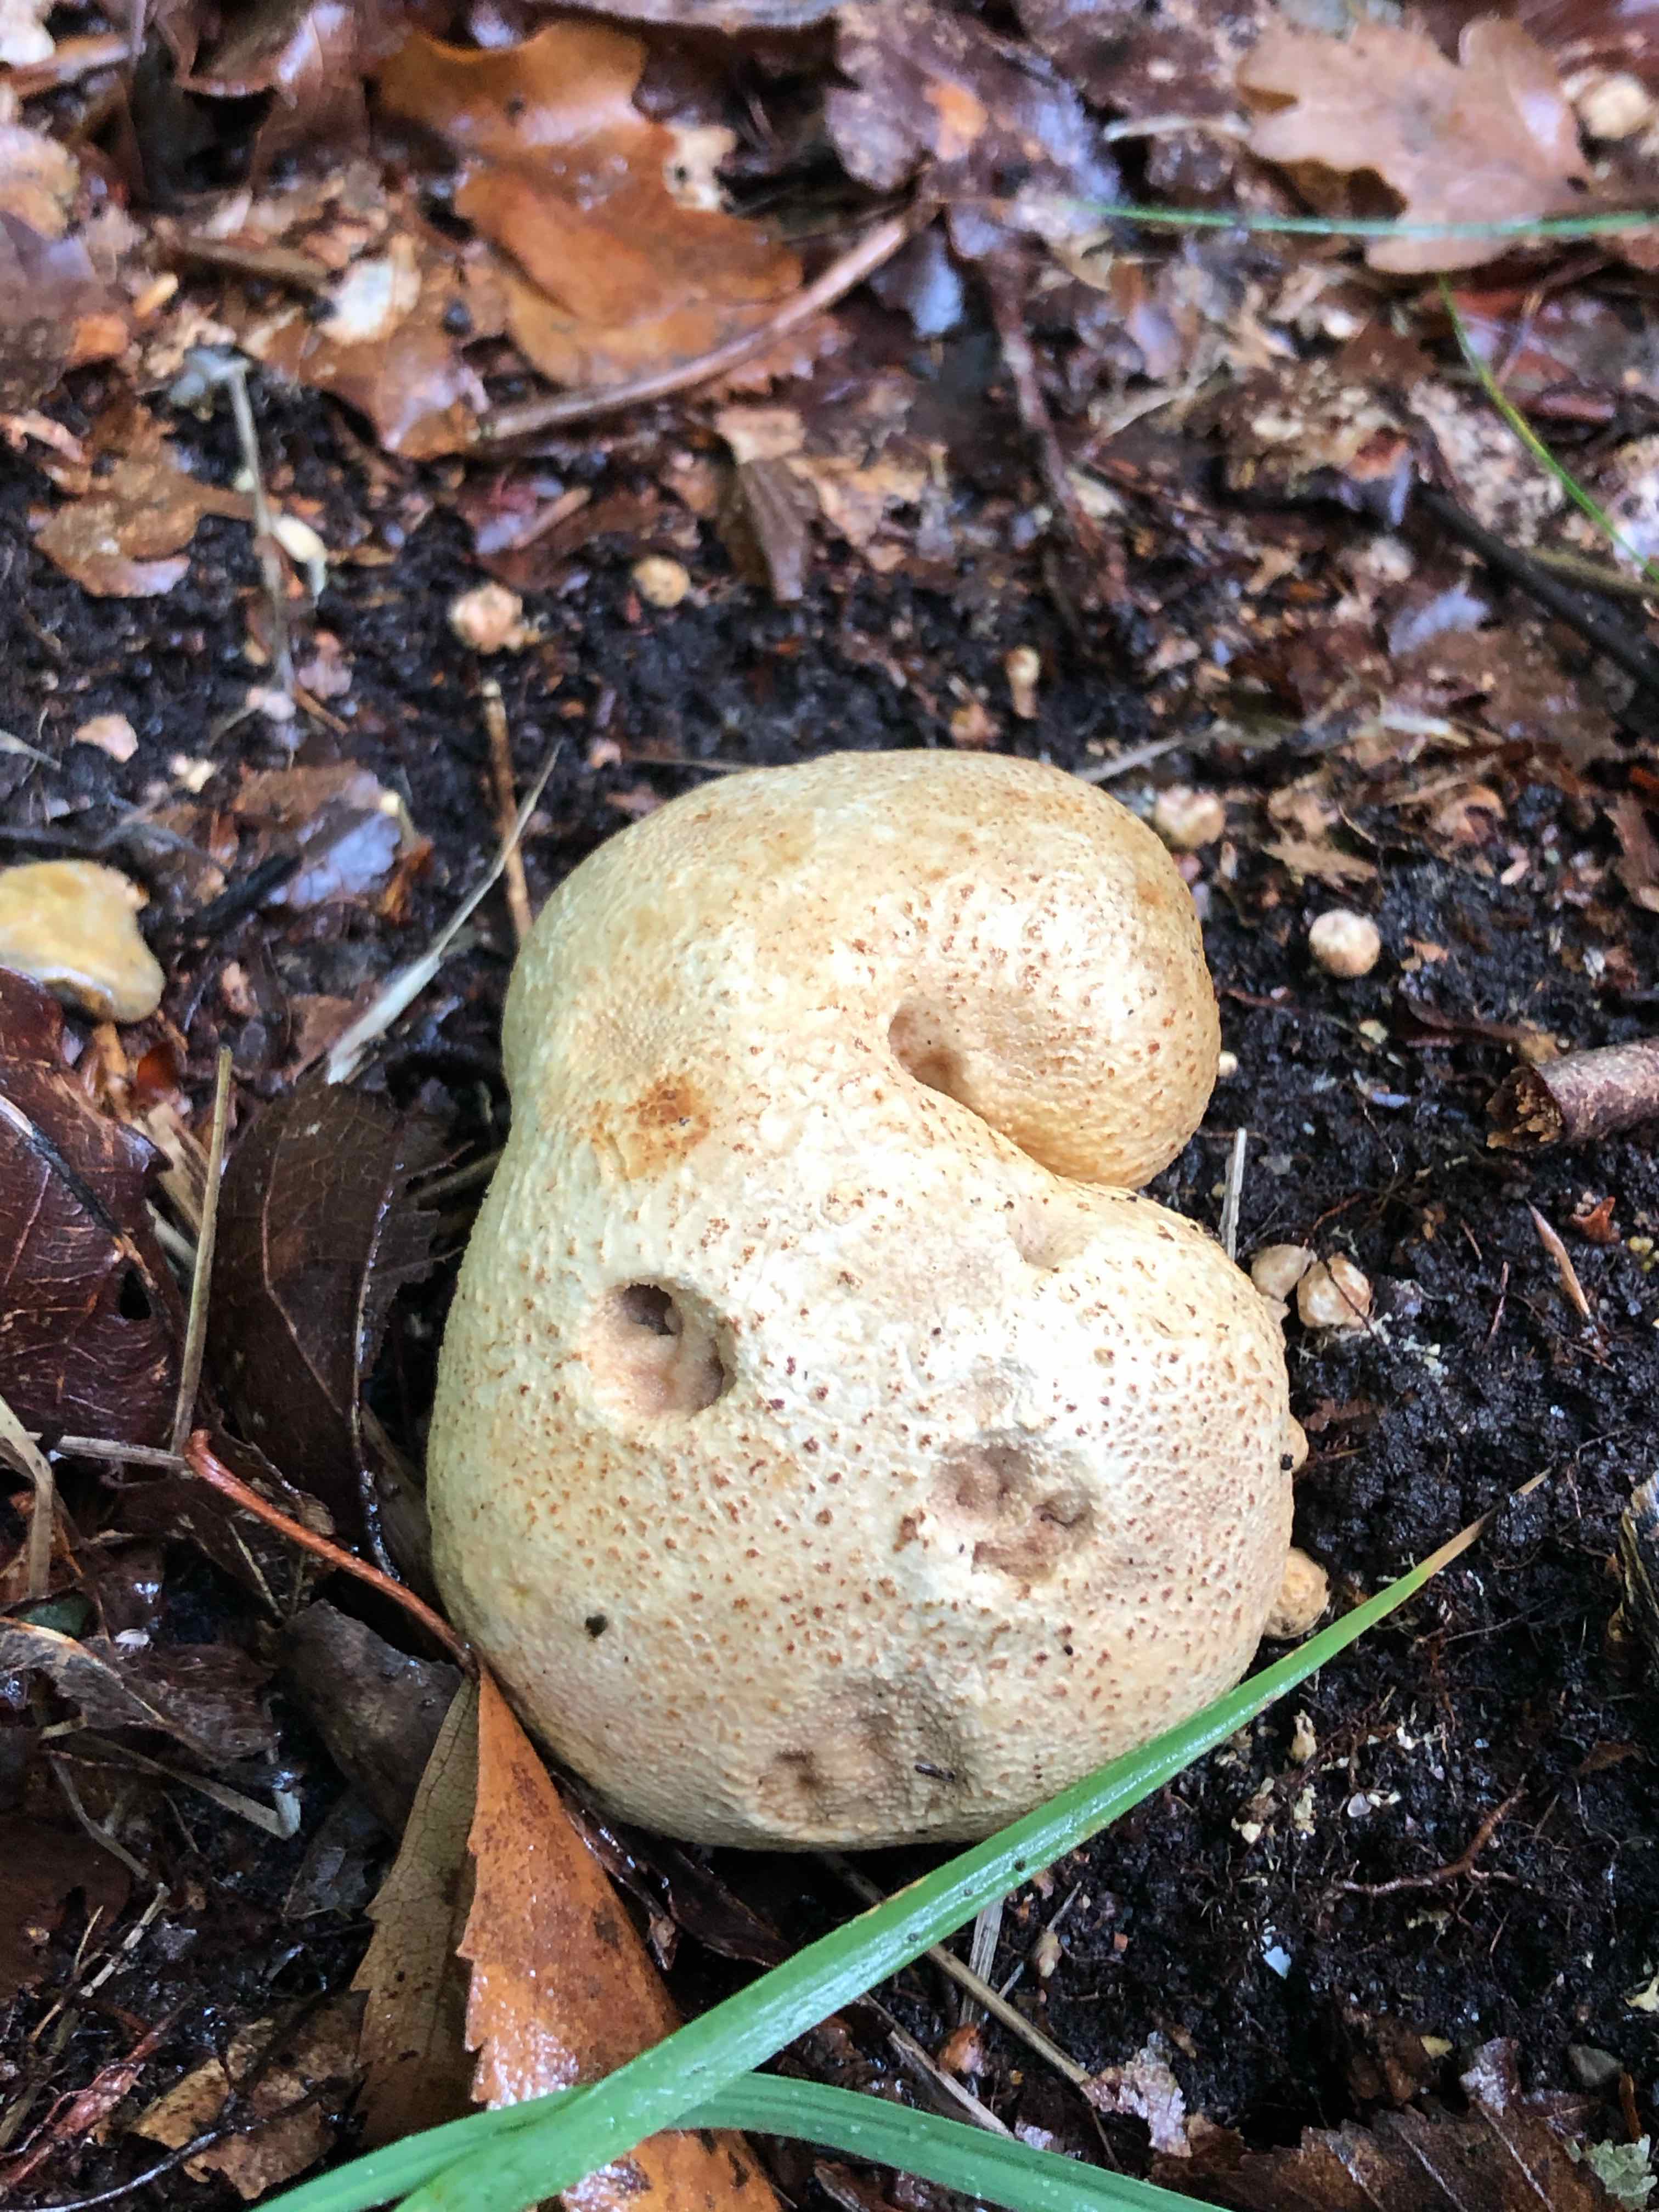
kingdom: Fungi
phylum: Basidiomycota
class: Agaricomycetes
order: Boletales
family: Sclerodermataceae
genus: Scleroderma
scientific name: Scleroderma citrinum
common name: almindelig bruskbold
